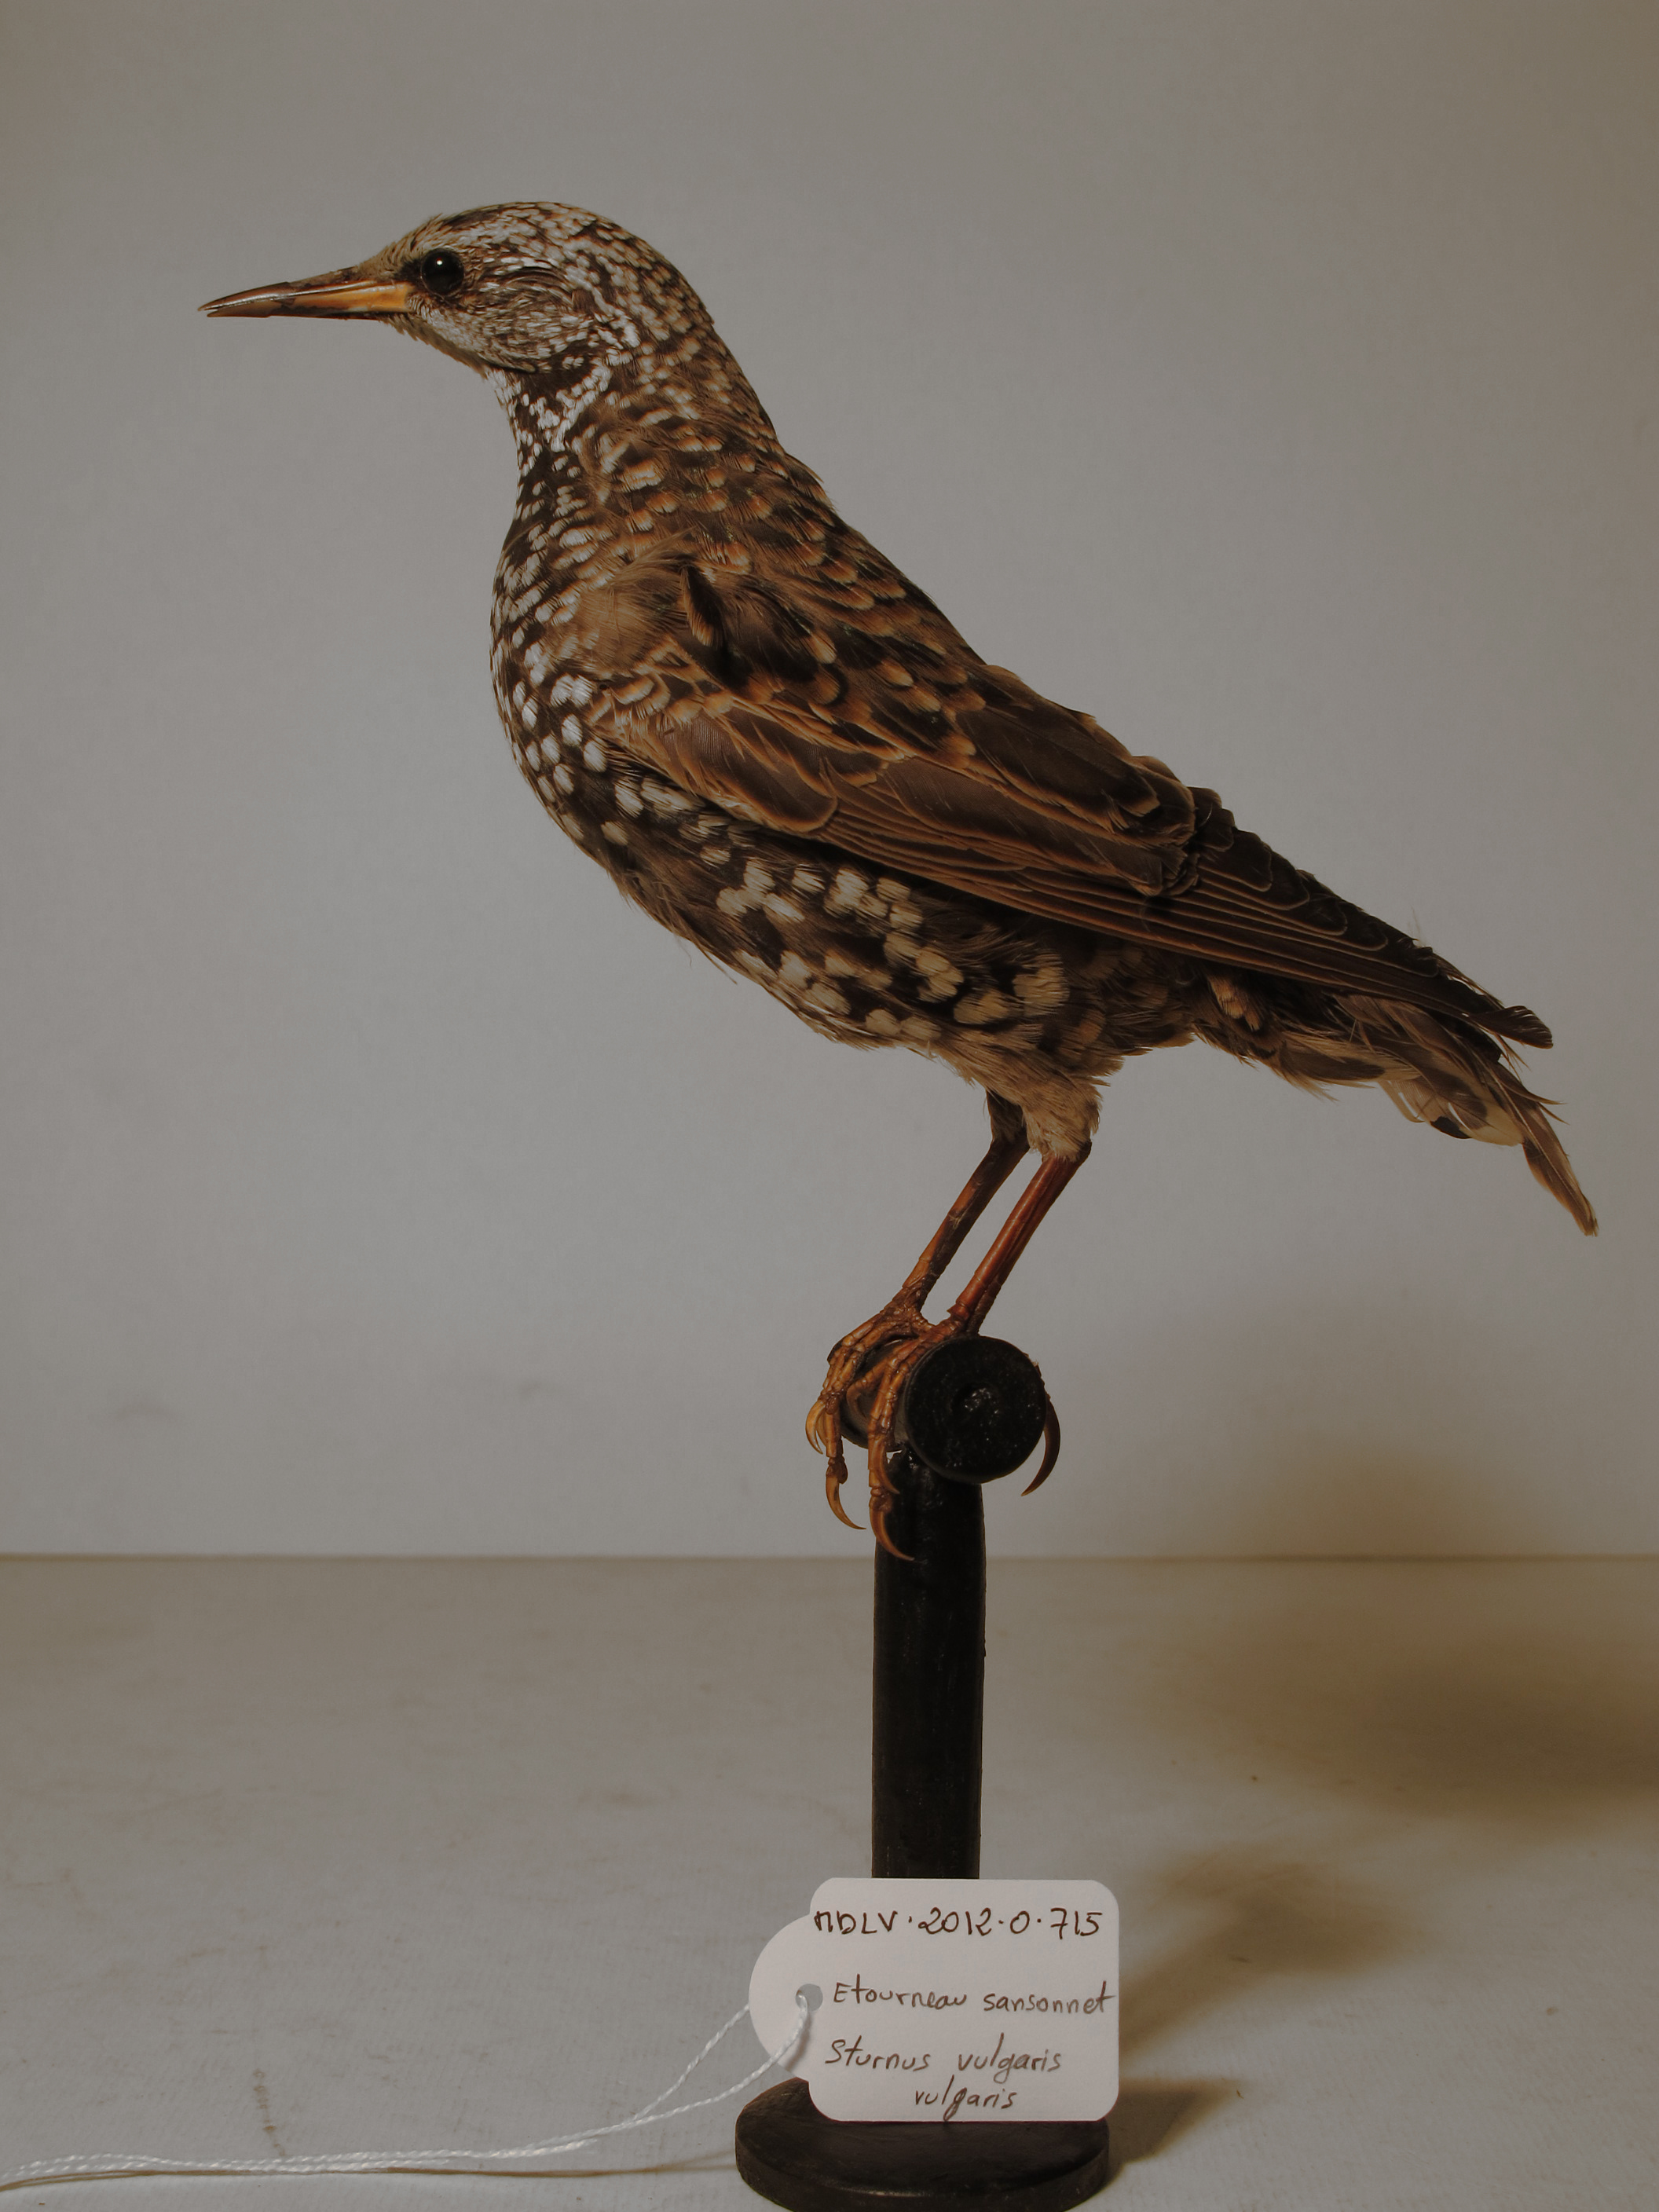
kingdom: Animalia
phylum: Chordata
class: Aves
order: Passeriformes
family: Sturnidae
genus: Sturnus
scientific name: Sturnus vulgaris
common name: Common Starling
